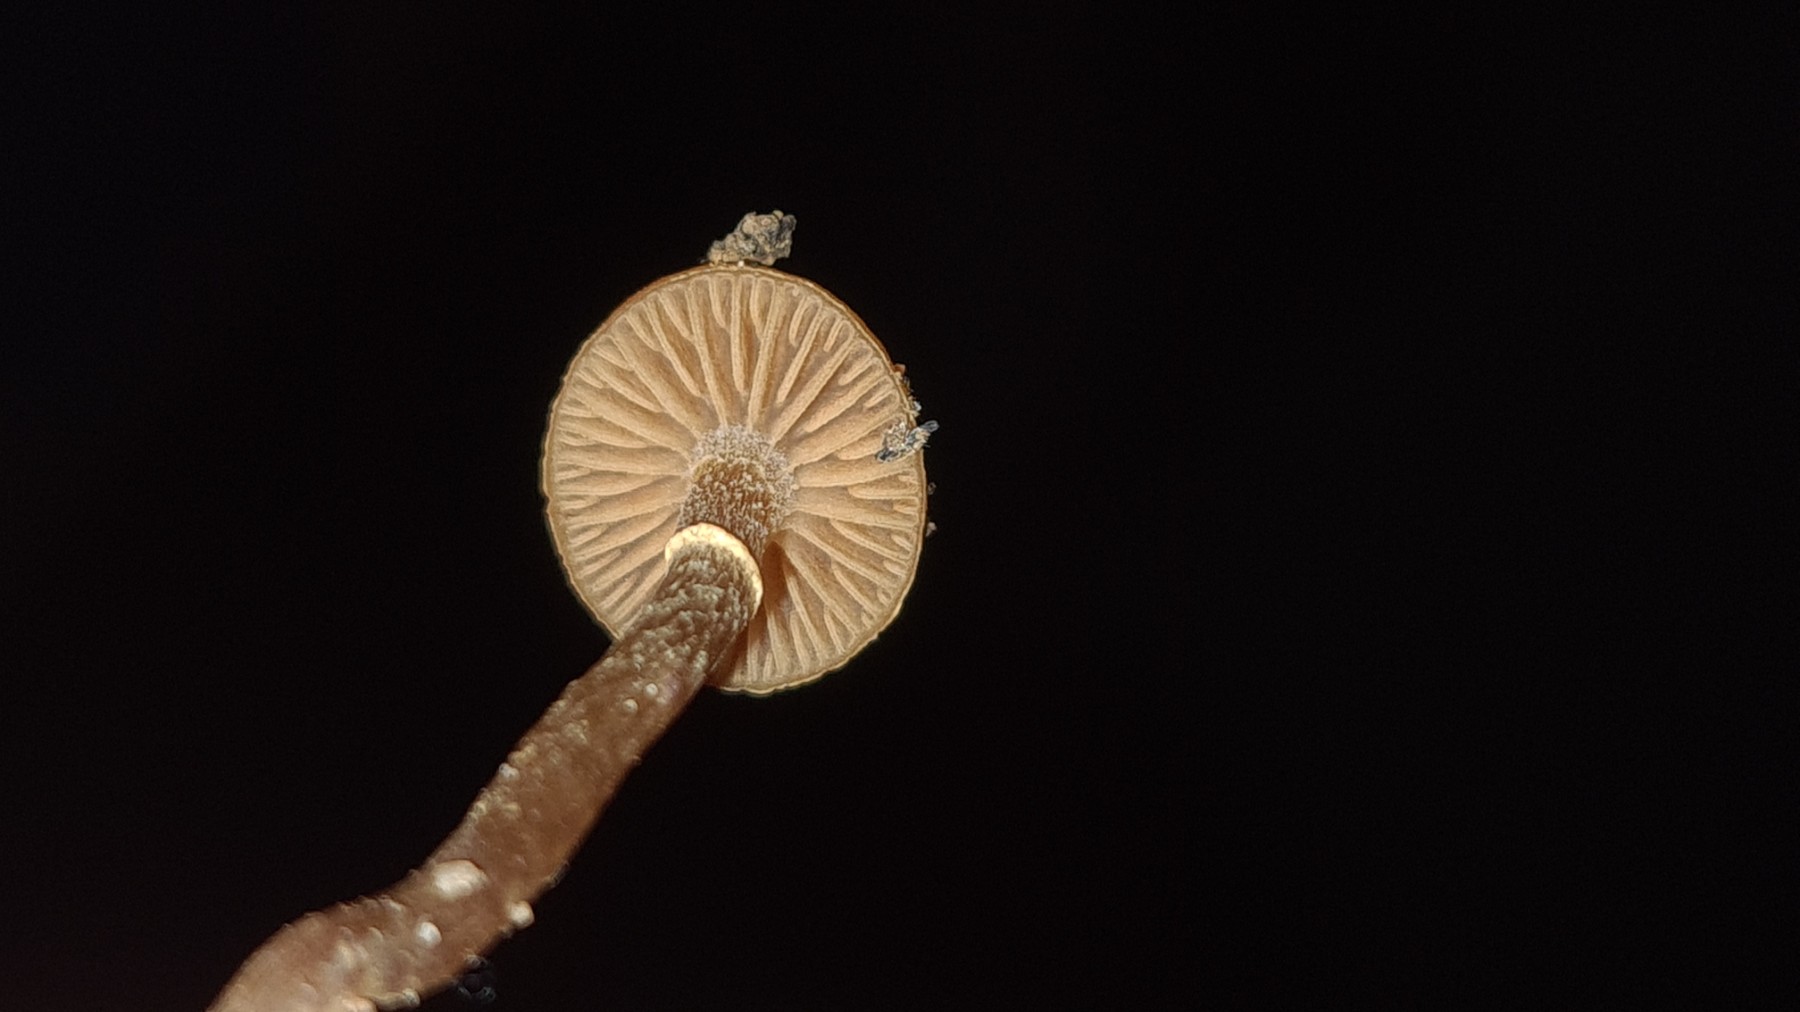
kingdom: Fungi
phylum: Basidiomycota
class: Agaricomycetes
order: Agaricales
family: Hymenogastraceae
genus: Galerina
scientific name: Galerina marginata
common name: randbæltet hjelmhat
